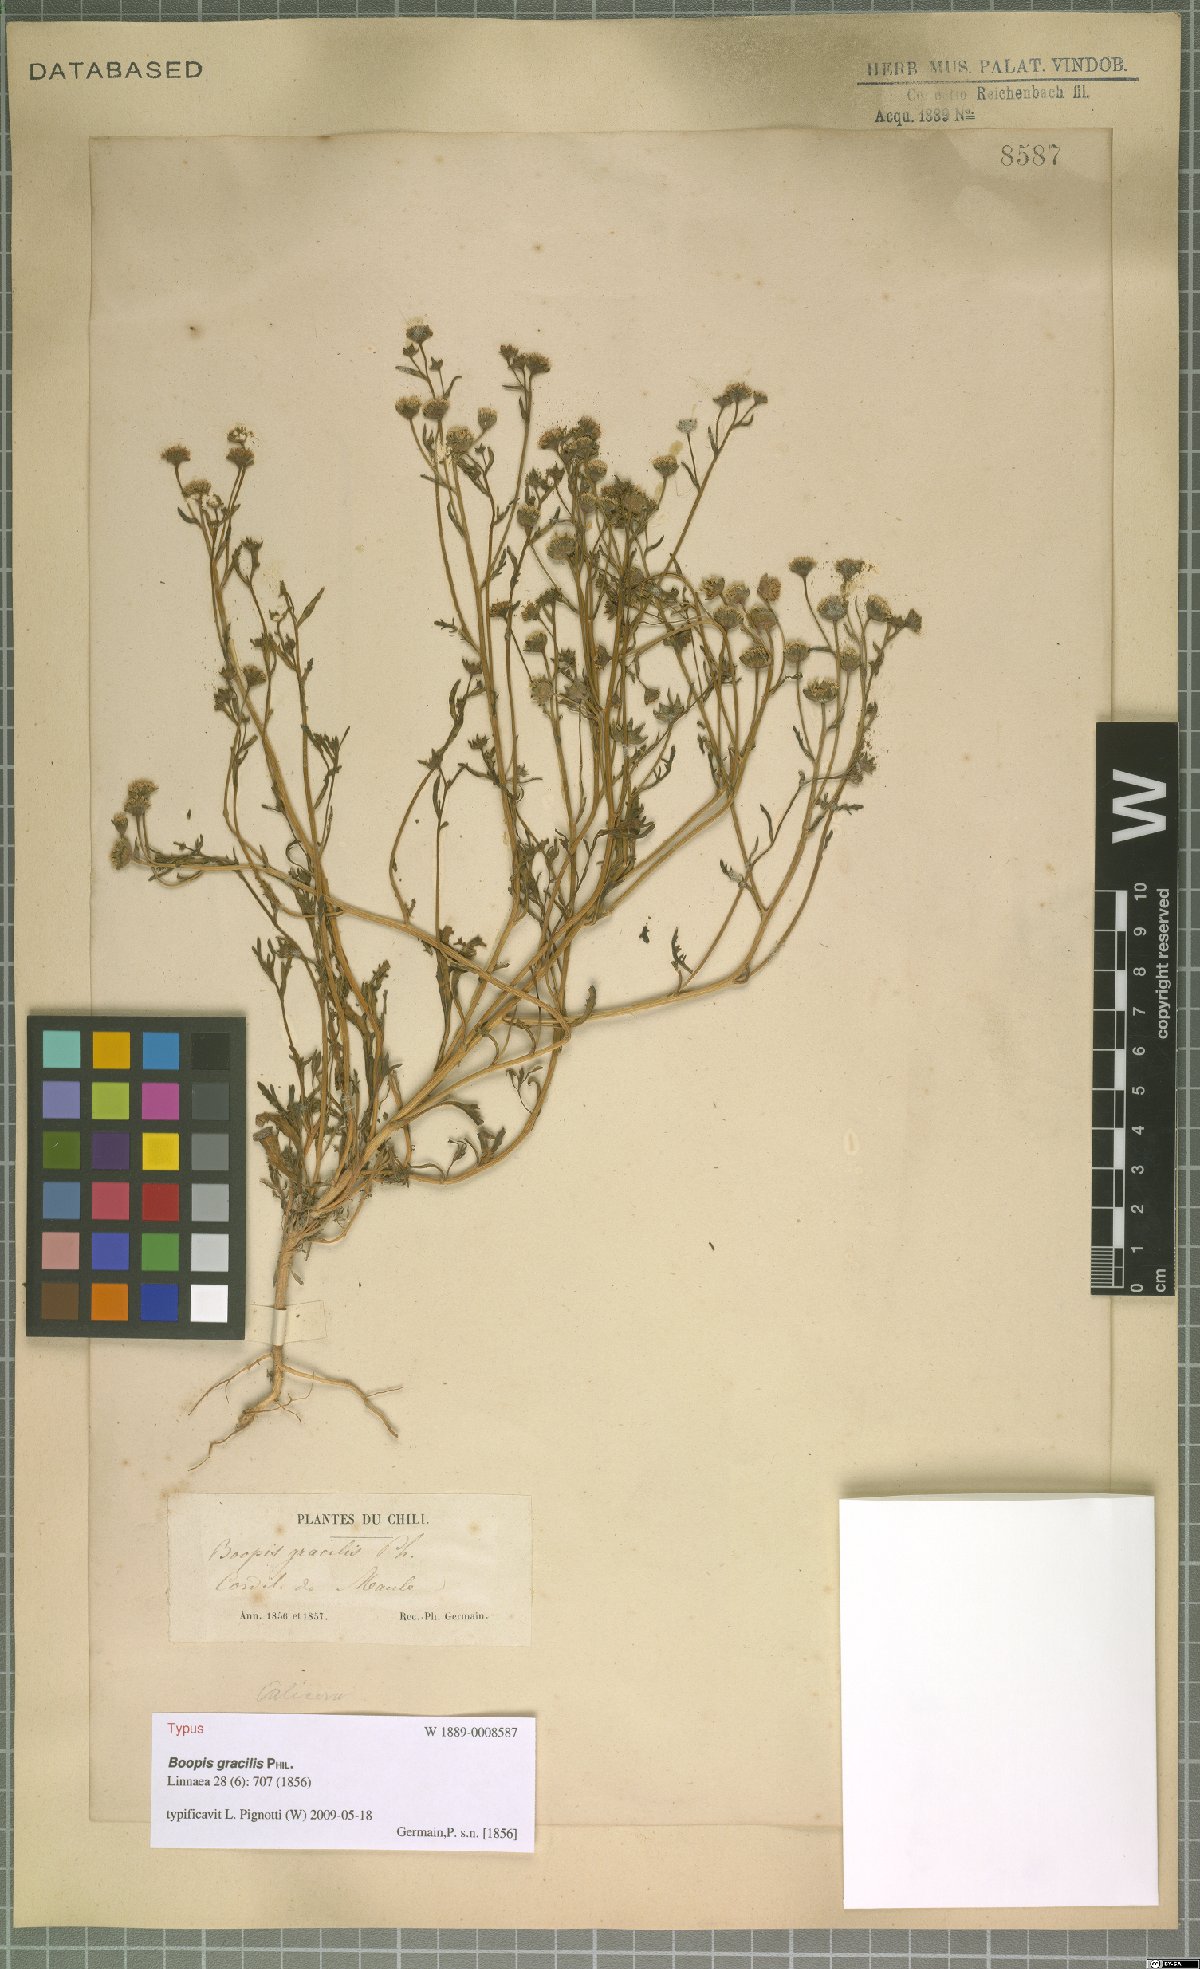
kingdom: Plantae
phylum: Tracheophyta
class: Magnoliopsida
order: Asterales
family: Calyceraceae
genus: Asynthema
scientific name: Asynthema gracile
